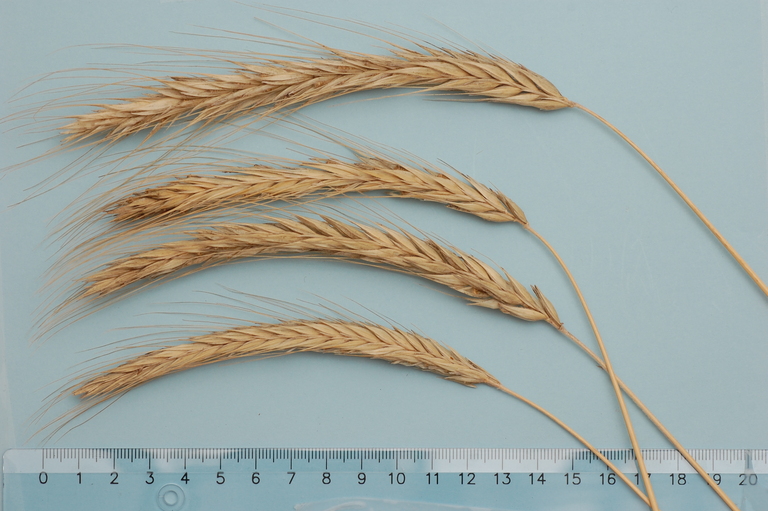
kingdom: Plantae
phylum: Tracheophyta
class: Liliopsida
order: Poales
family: Poaceae
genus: Secale
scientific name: Secale cereale
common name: Rye
